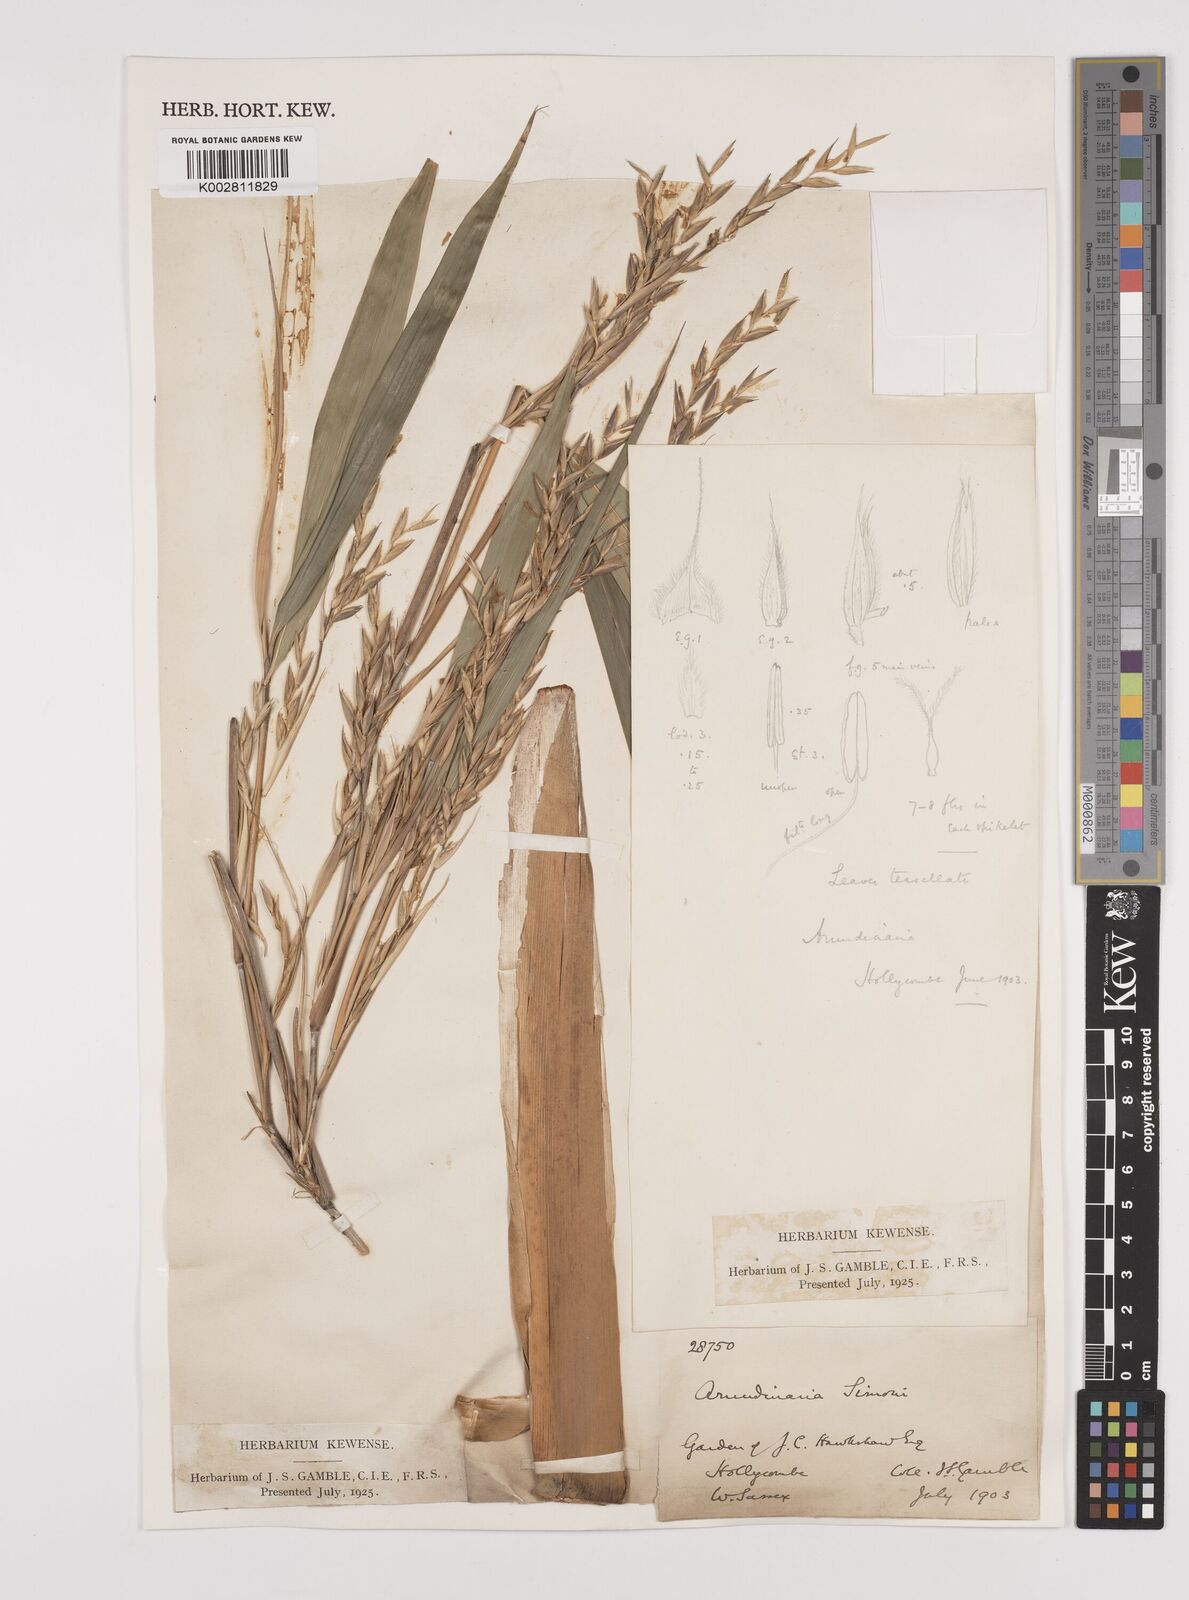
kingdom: Plantae
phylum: Tracheophyta
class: Liliopsida
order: Poales
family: Poaceae
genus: Pleioblastus
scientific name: Pleioblastus simonii
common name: Simon bamboo
